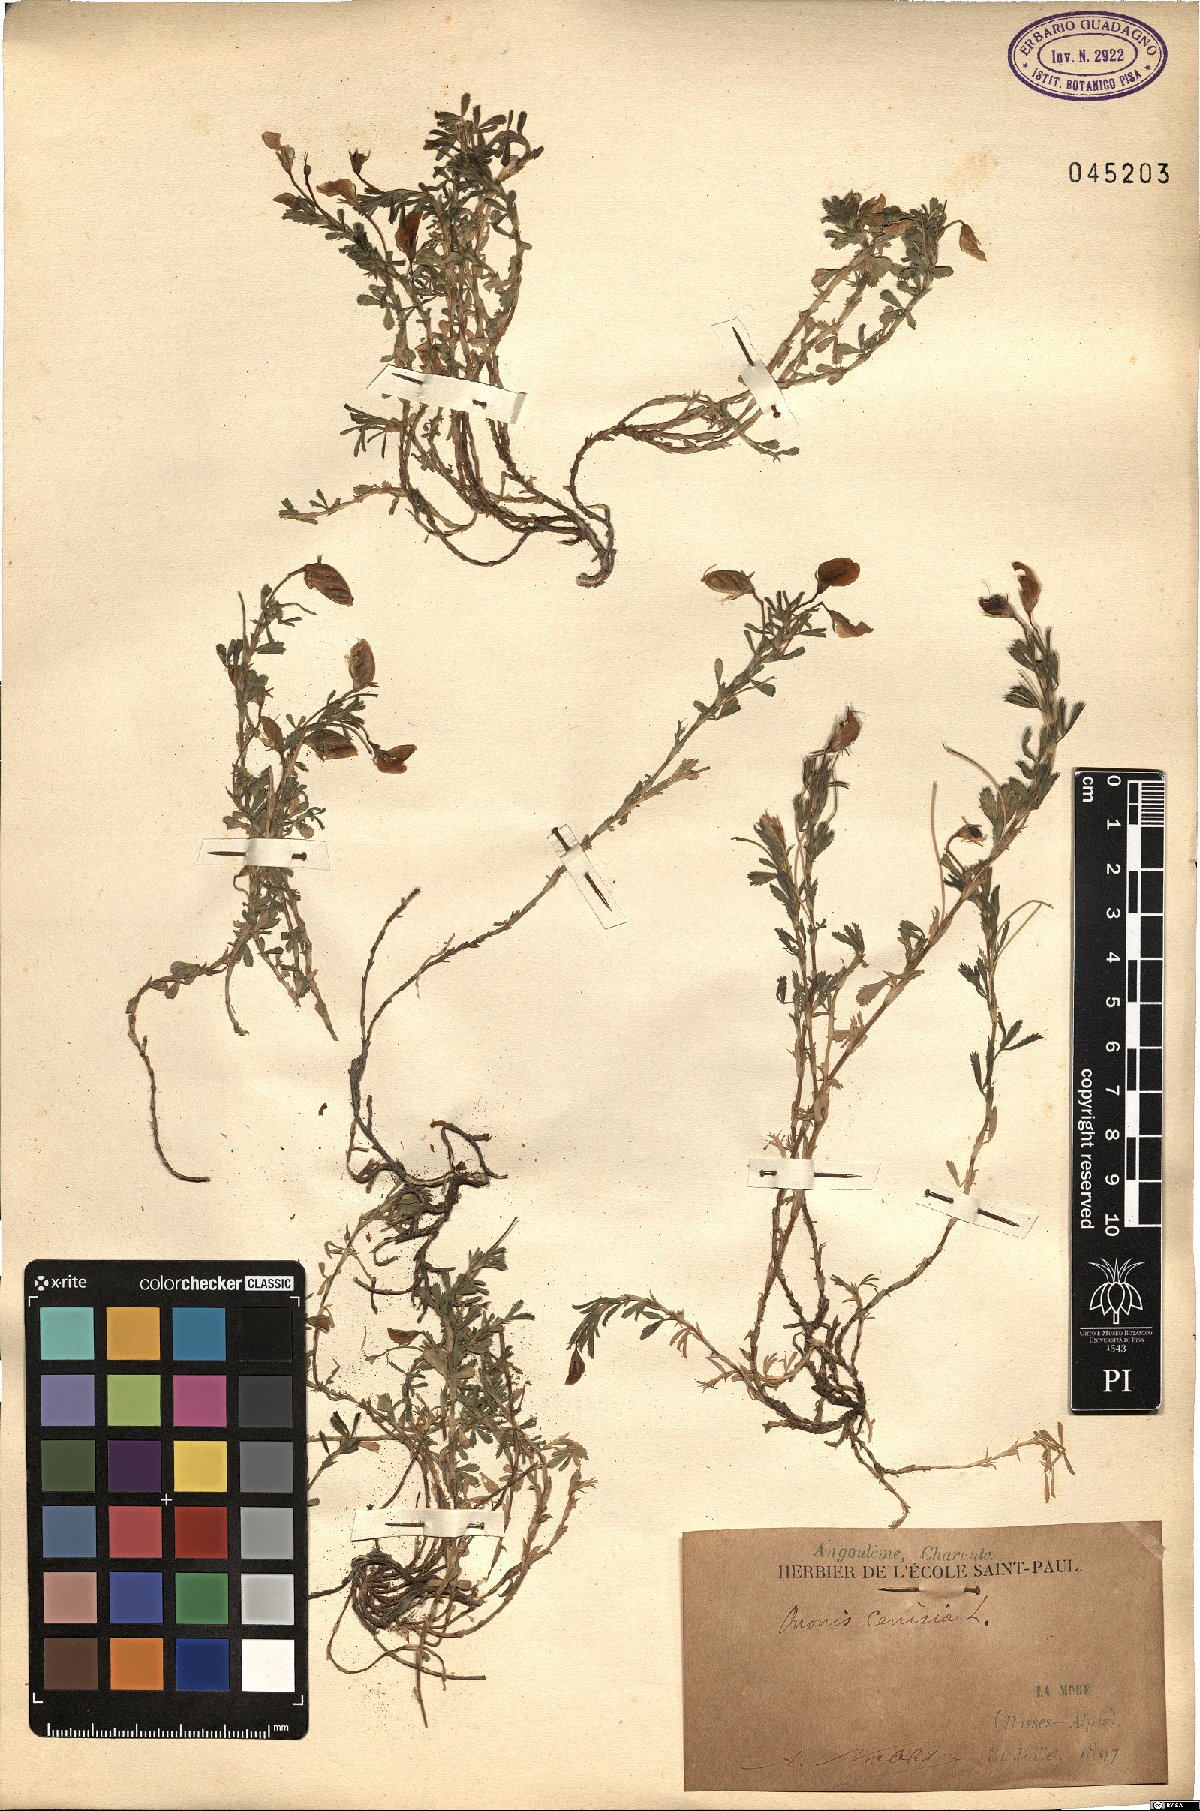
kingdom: Plantae
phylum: Tracheophyta
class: Magnoliopsida
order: Fabales
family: Fabaceae
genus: Ononis
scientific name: Ononis cristata
